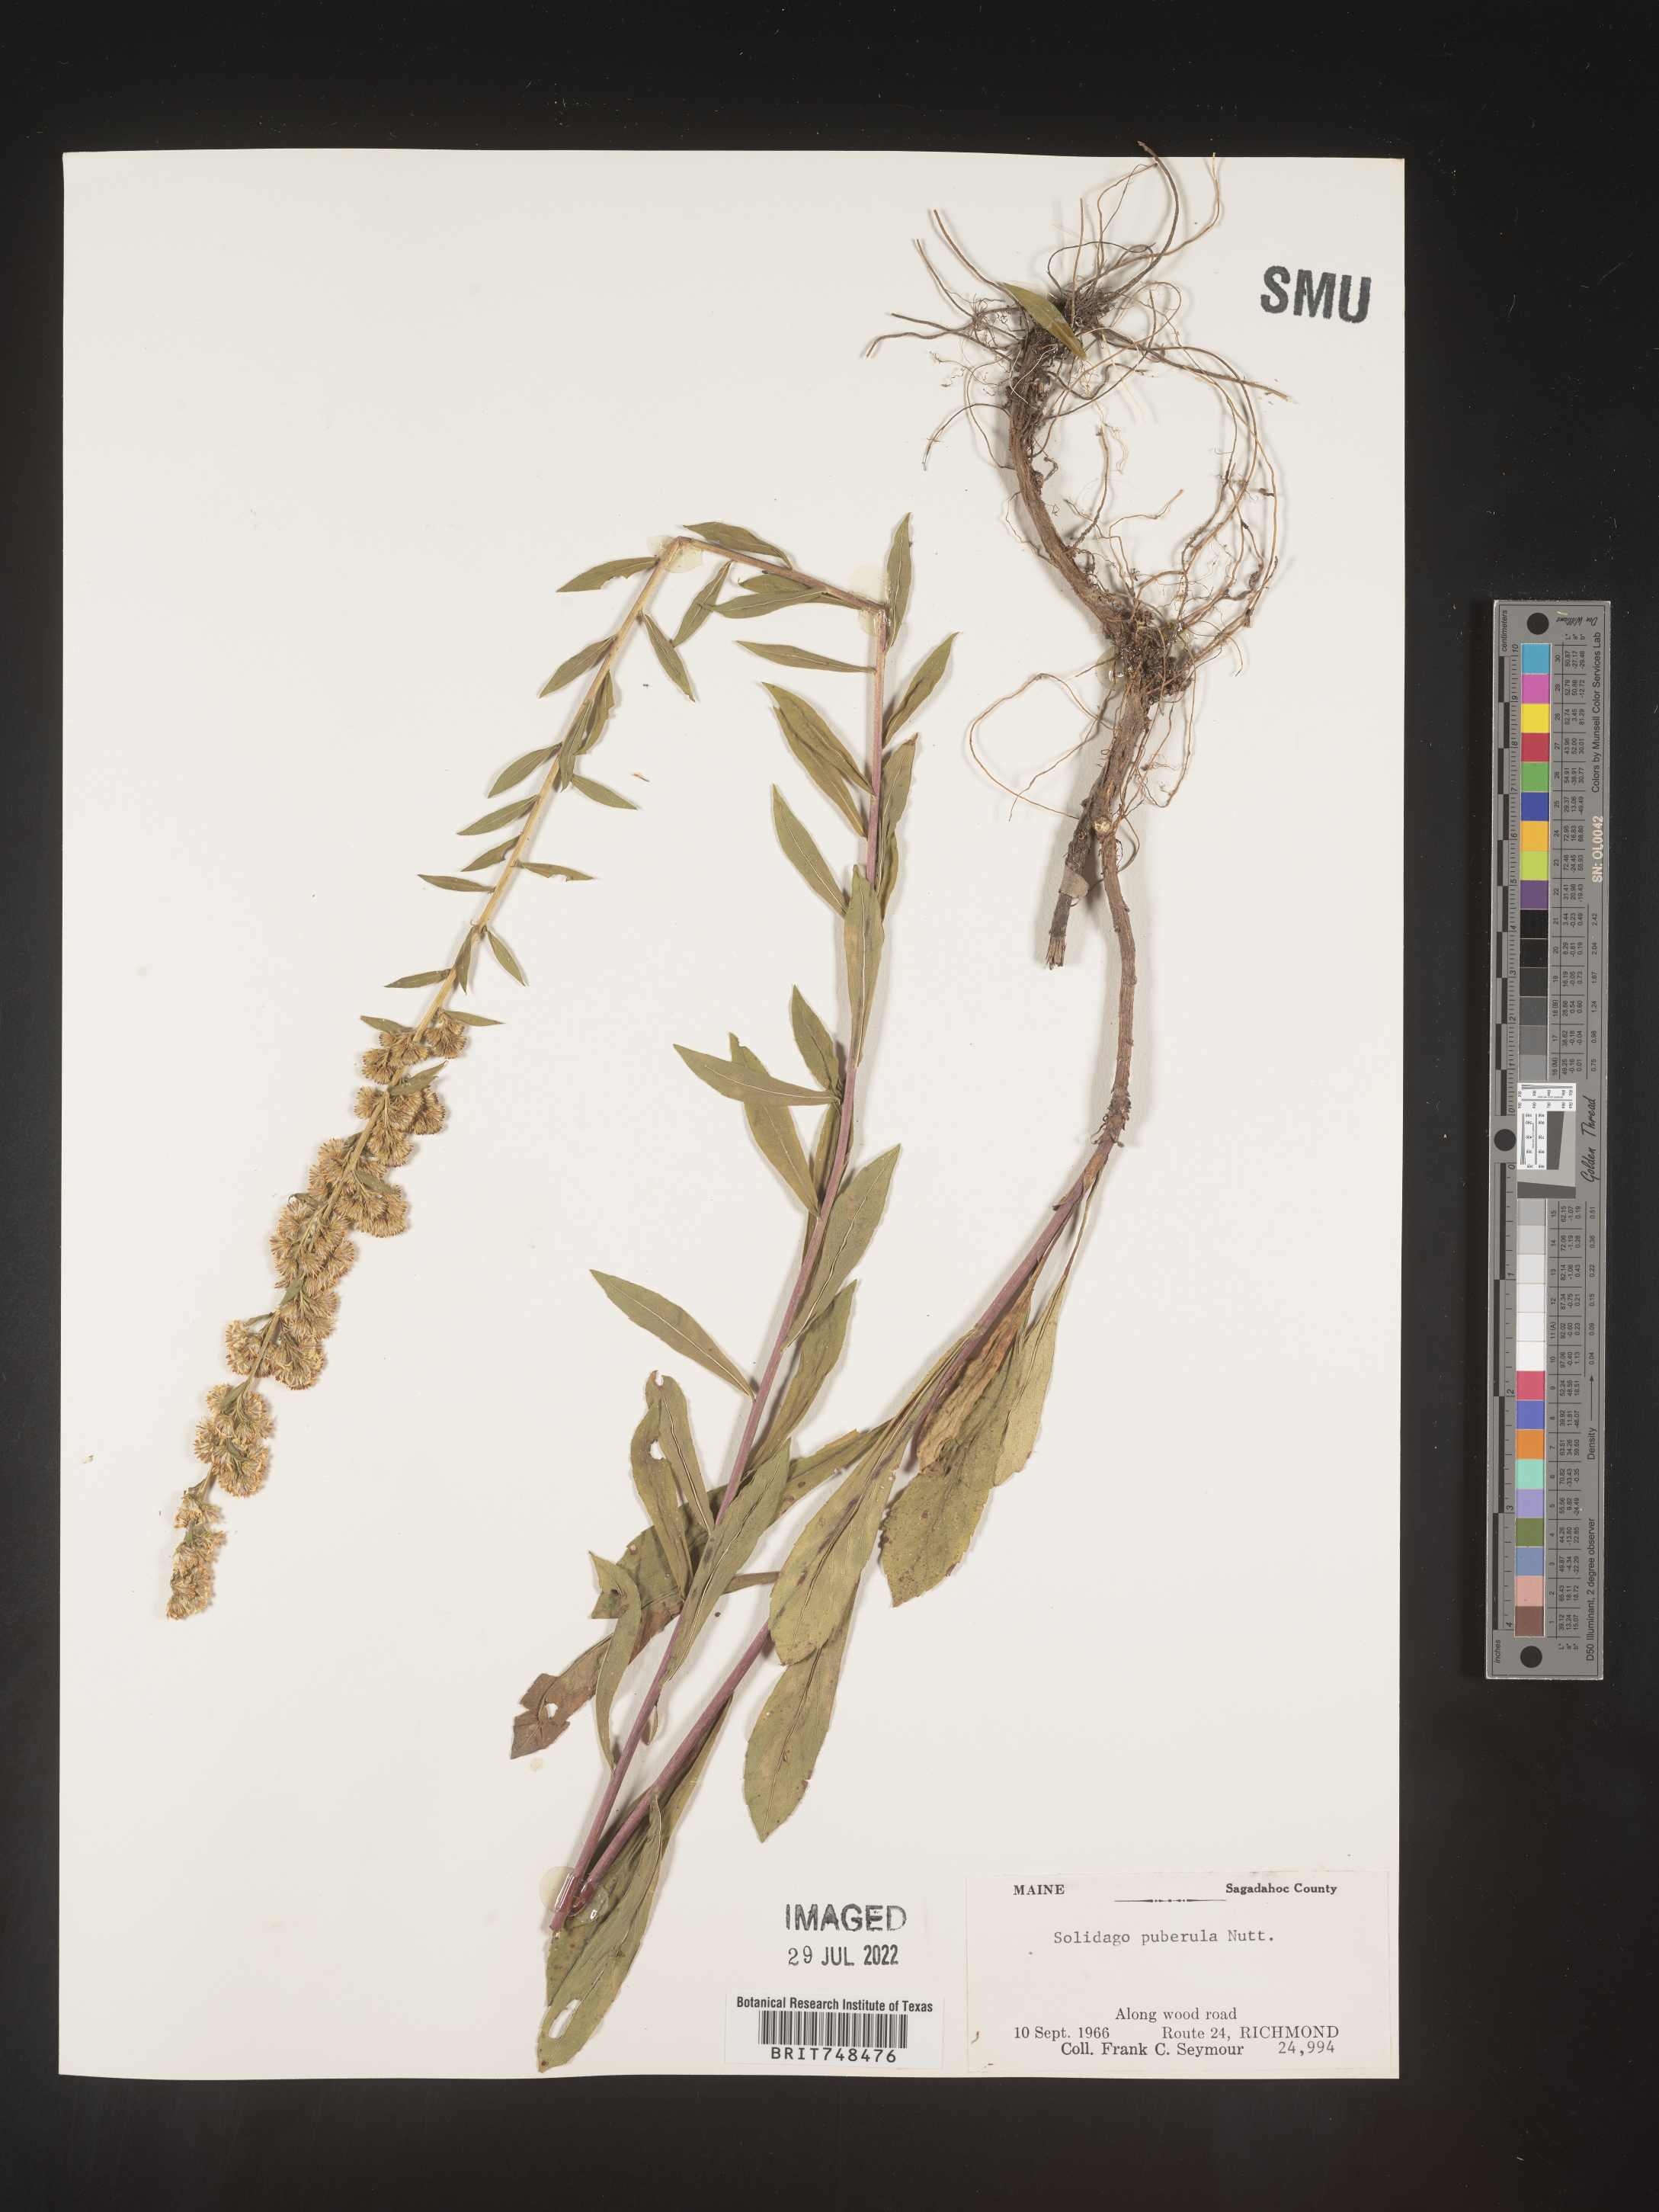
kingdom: Plantae
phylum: Tracheophyta
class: Magnoliopsida
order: Asterales
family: Asteraceae
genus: Solidago
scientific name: Solidago puberula
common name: Downy goldenrod
